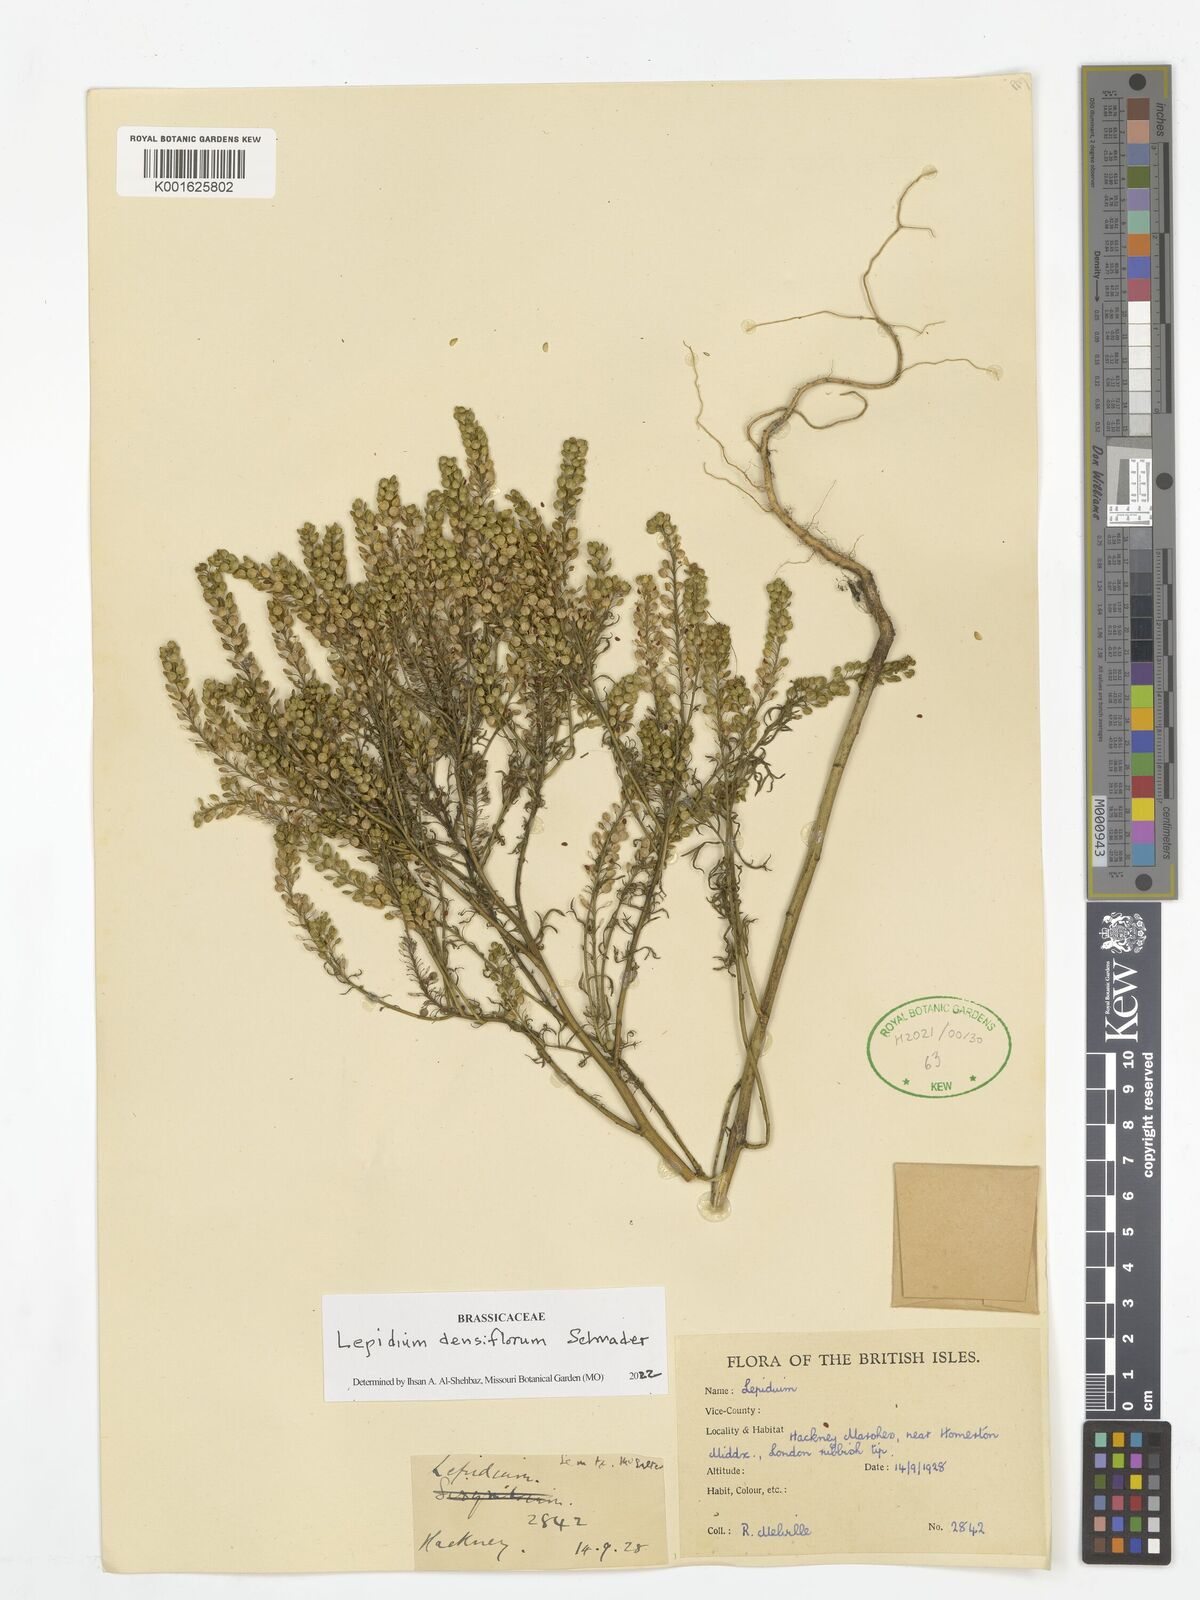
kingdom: Plantae
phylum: Tracheophyta
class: Magnoliopsida
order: Brassicales
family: Brassicaceae
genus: Lepidium
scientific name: Lepidium densiflorum
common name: Miner's pepperwort
